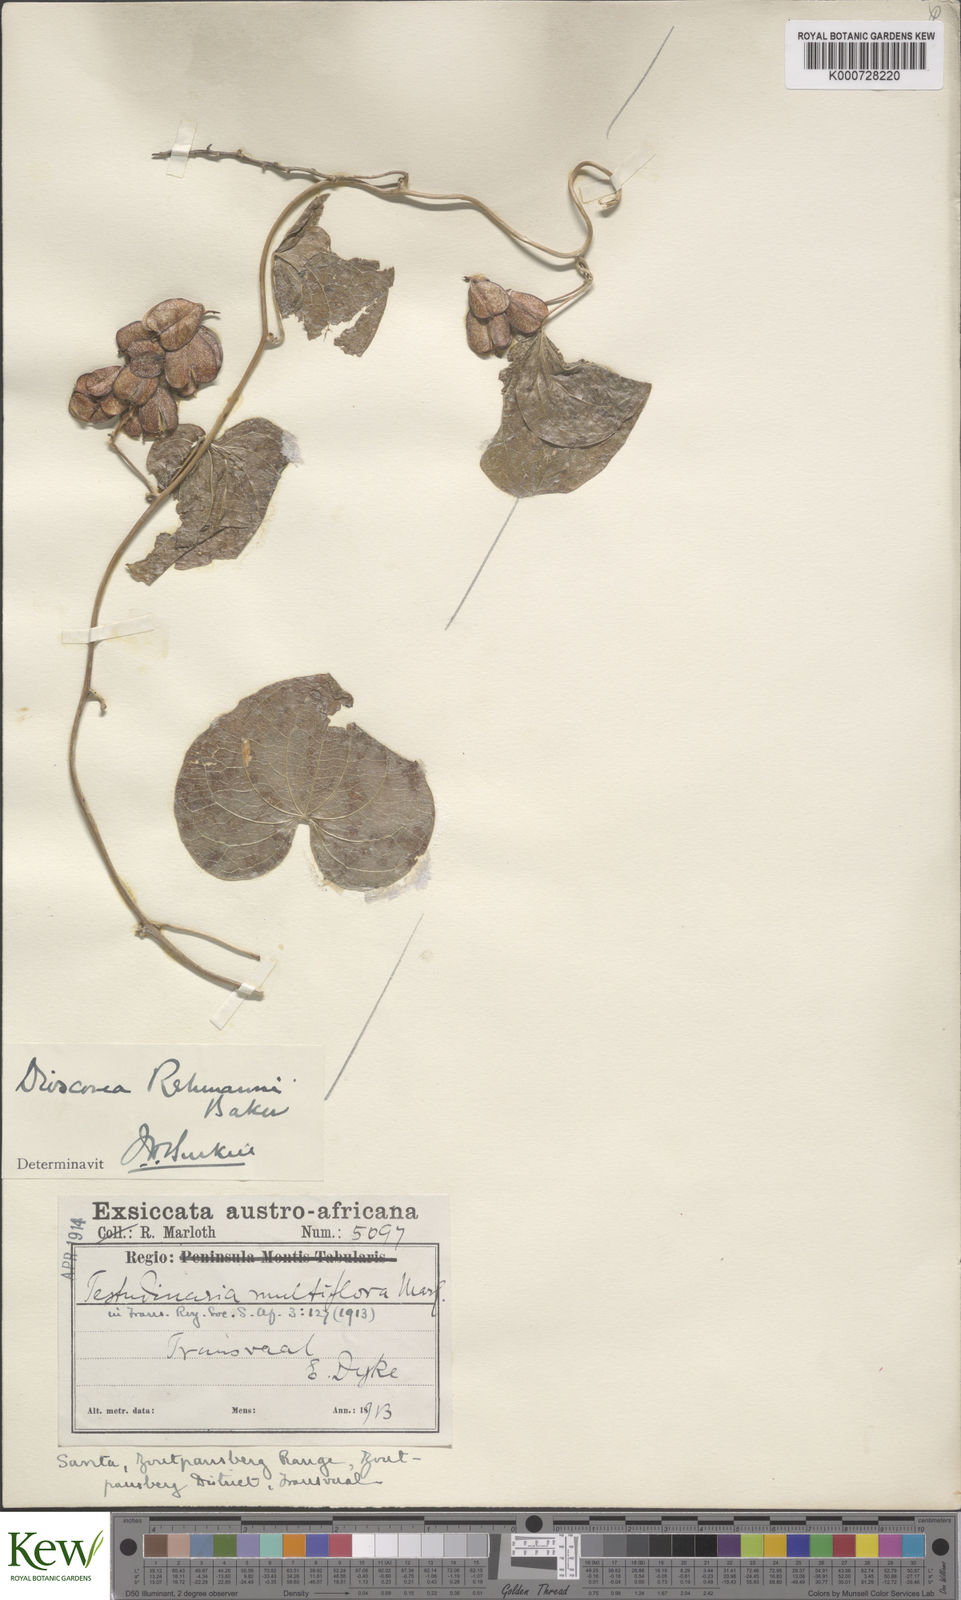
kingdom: Plantae
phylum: Tracheophyta
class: Liliopsida
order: Dioscoreales
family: Dioscoreaceae
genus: Dioscorea
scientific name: Dioscorea multiflora
